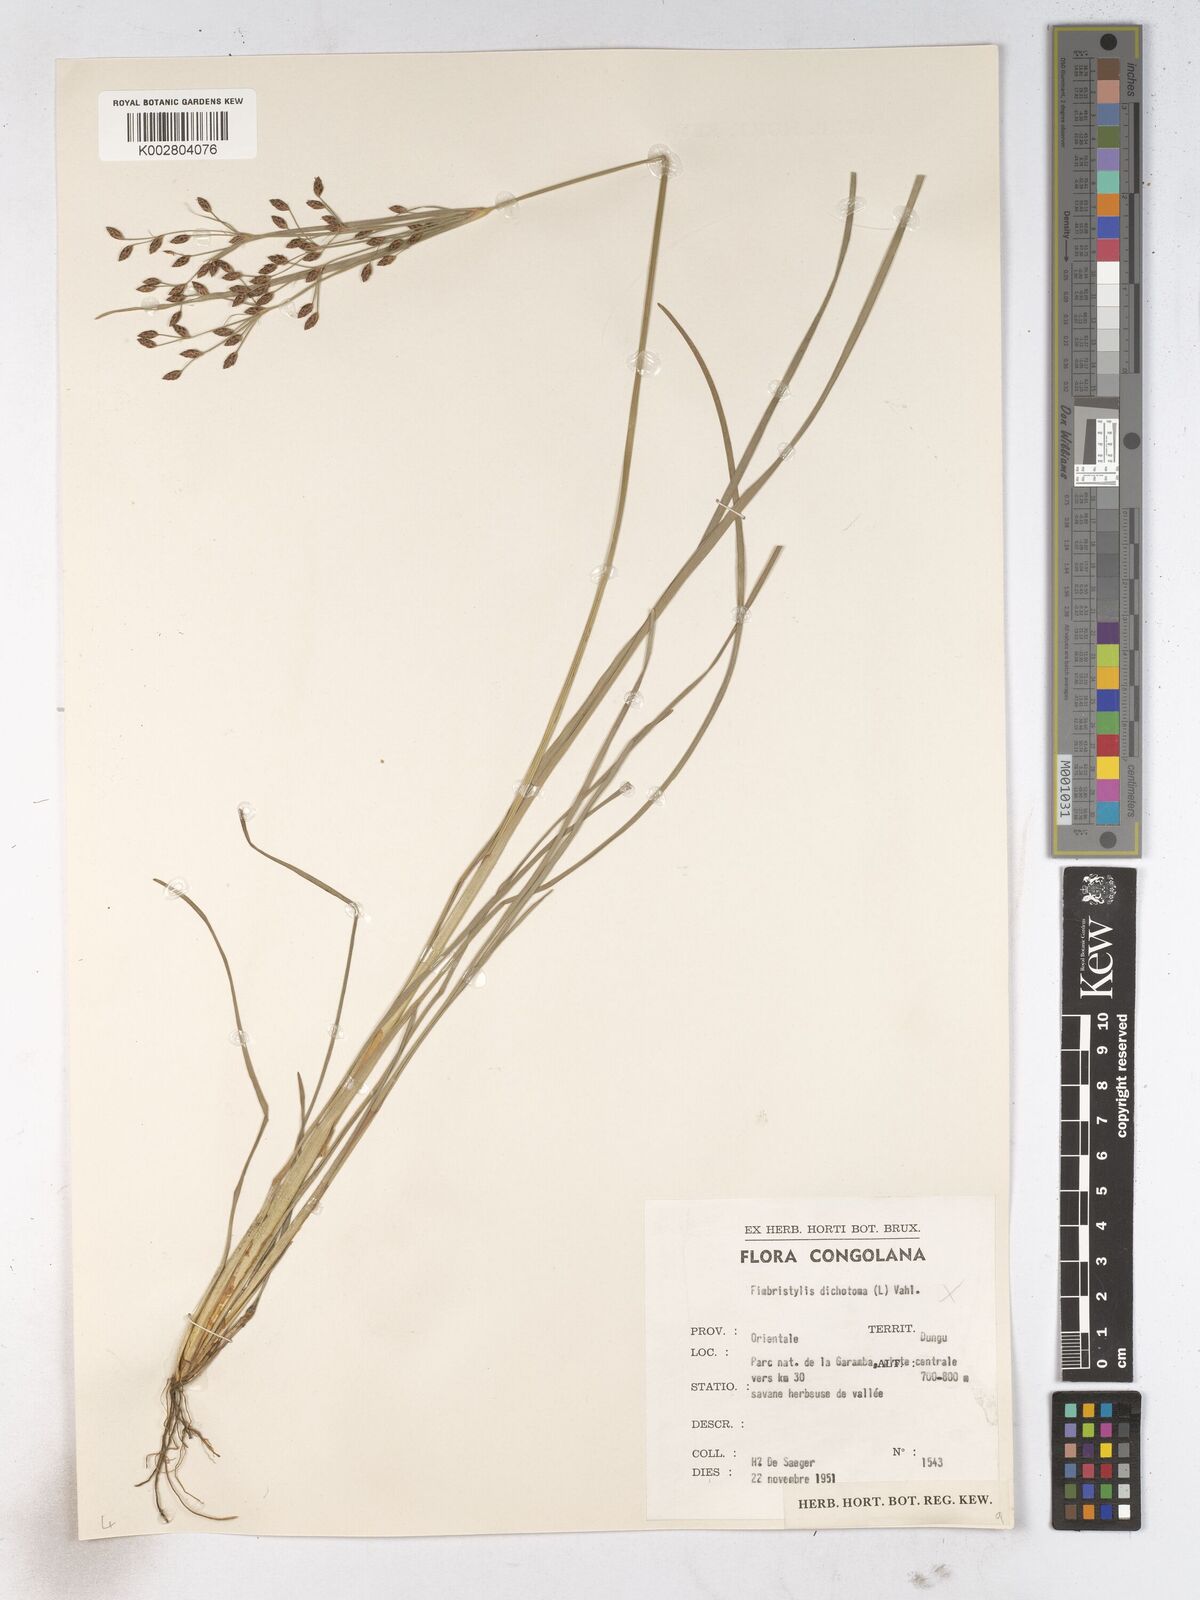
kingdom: Plantae
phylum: Tracheophyta
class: Liliopsida
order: Poales
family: Cyperaceae
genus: Fimbristylis
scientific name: Fimbristylis dichotoma
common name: Forked fimbry
